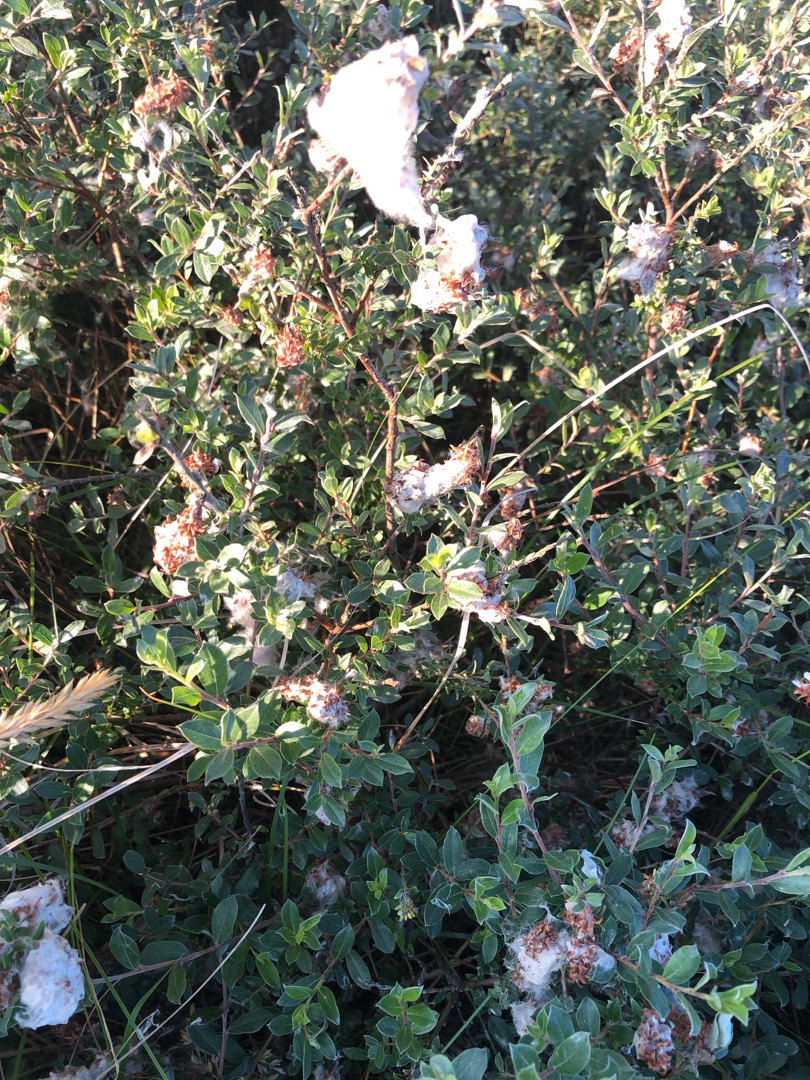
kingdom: Plantae
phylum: Tracheophyta
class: Magnoliopsida
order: Malpighiales
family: Salicaceae
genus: Salix
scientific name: Salix repens
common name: Krybende pil
